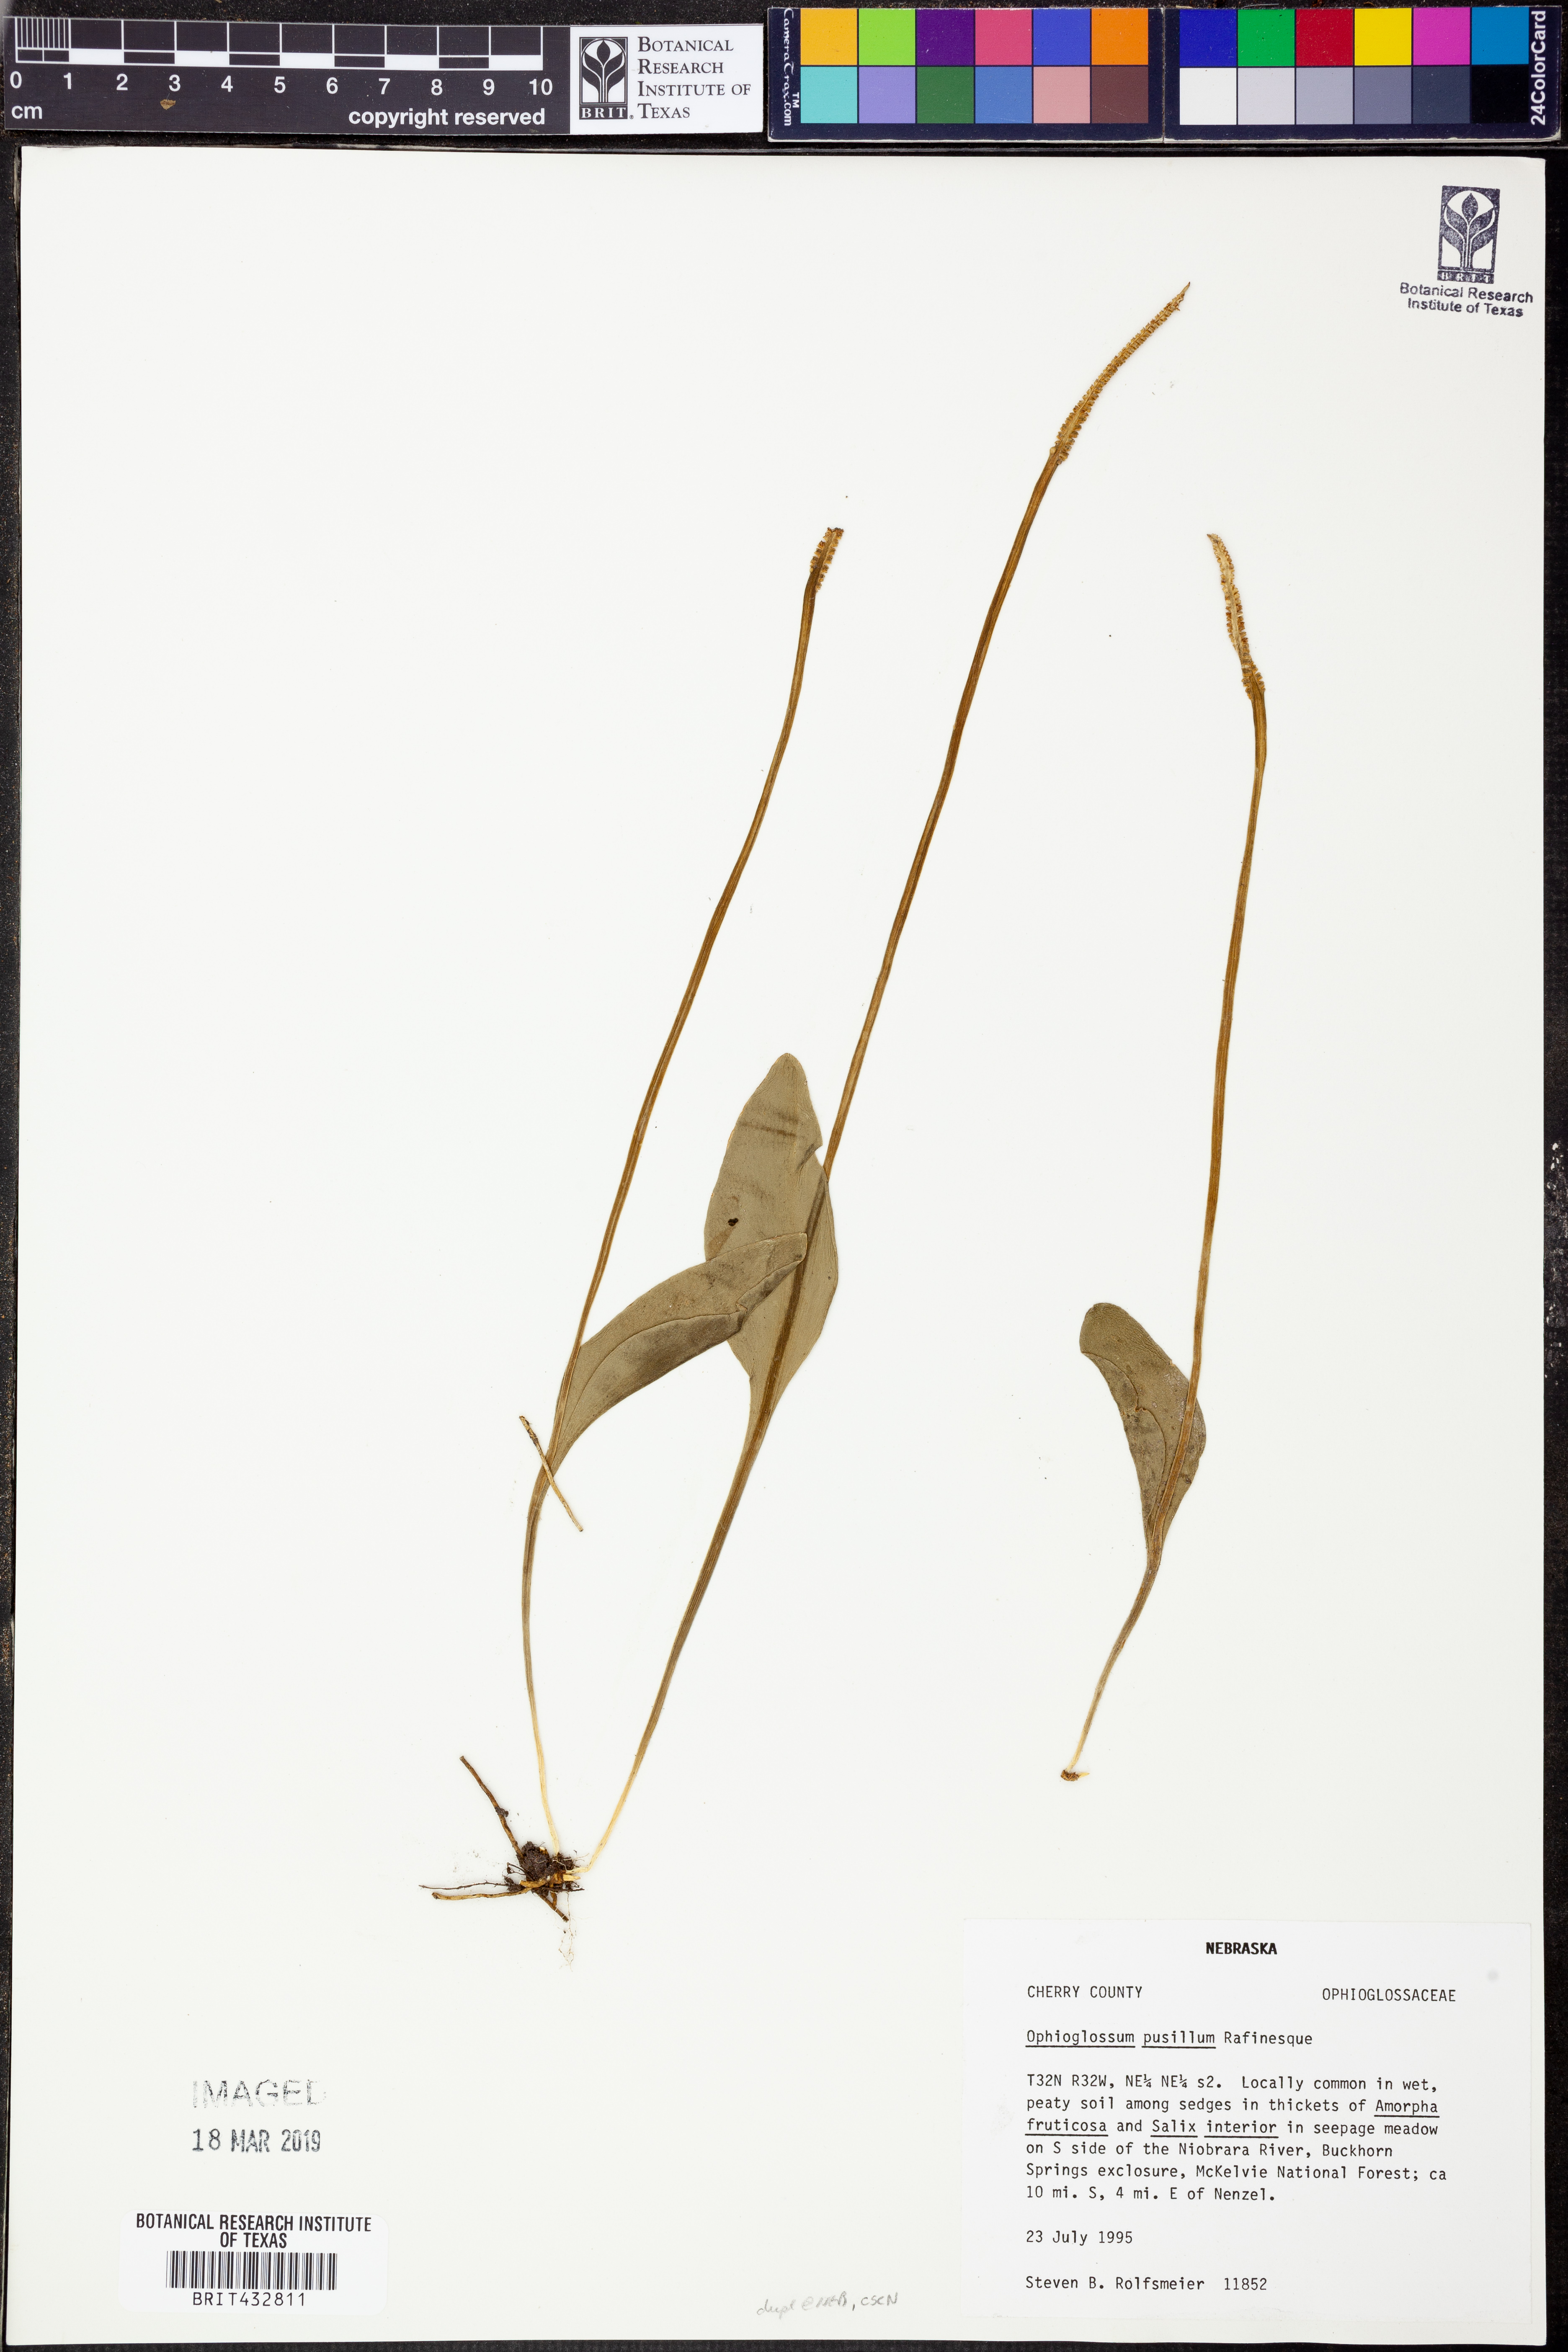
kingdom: Plantae
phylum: Tracheophyta
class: Polypodiopsida
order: Ophioglossales
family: Ophioglossaceae
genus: Ophioglossum
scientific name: Ophioglossum pusillum
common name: Northern adder's-tongue
